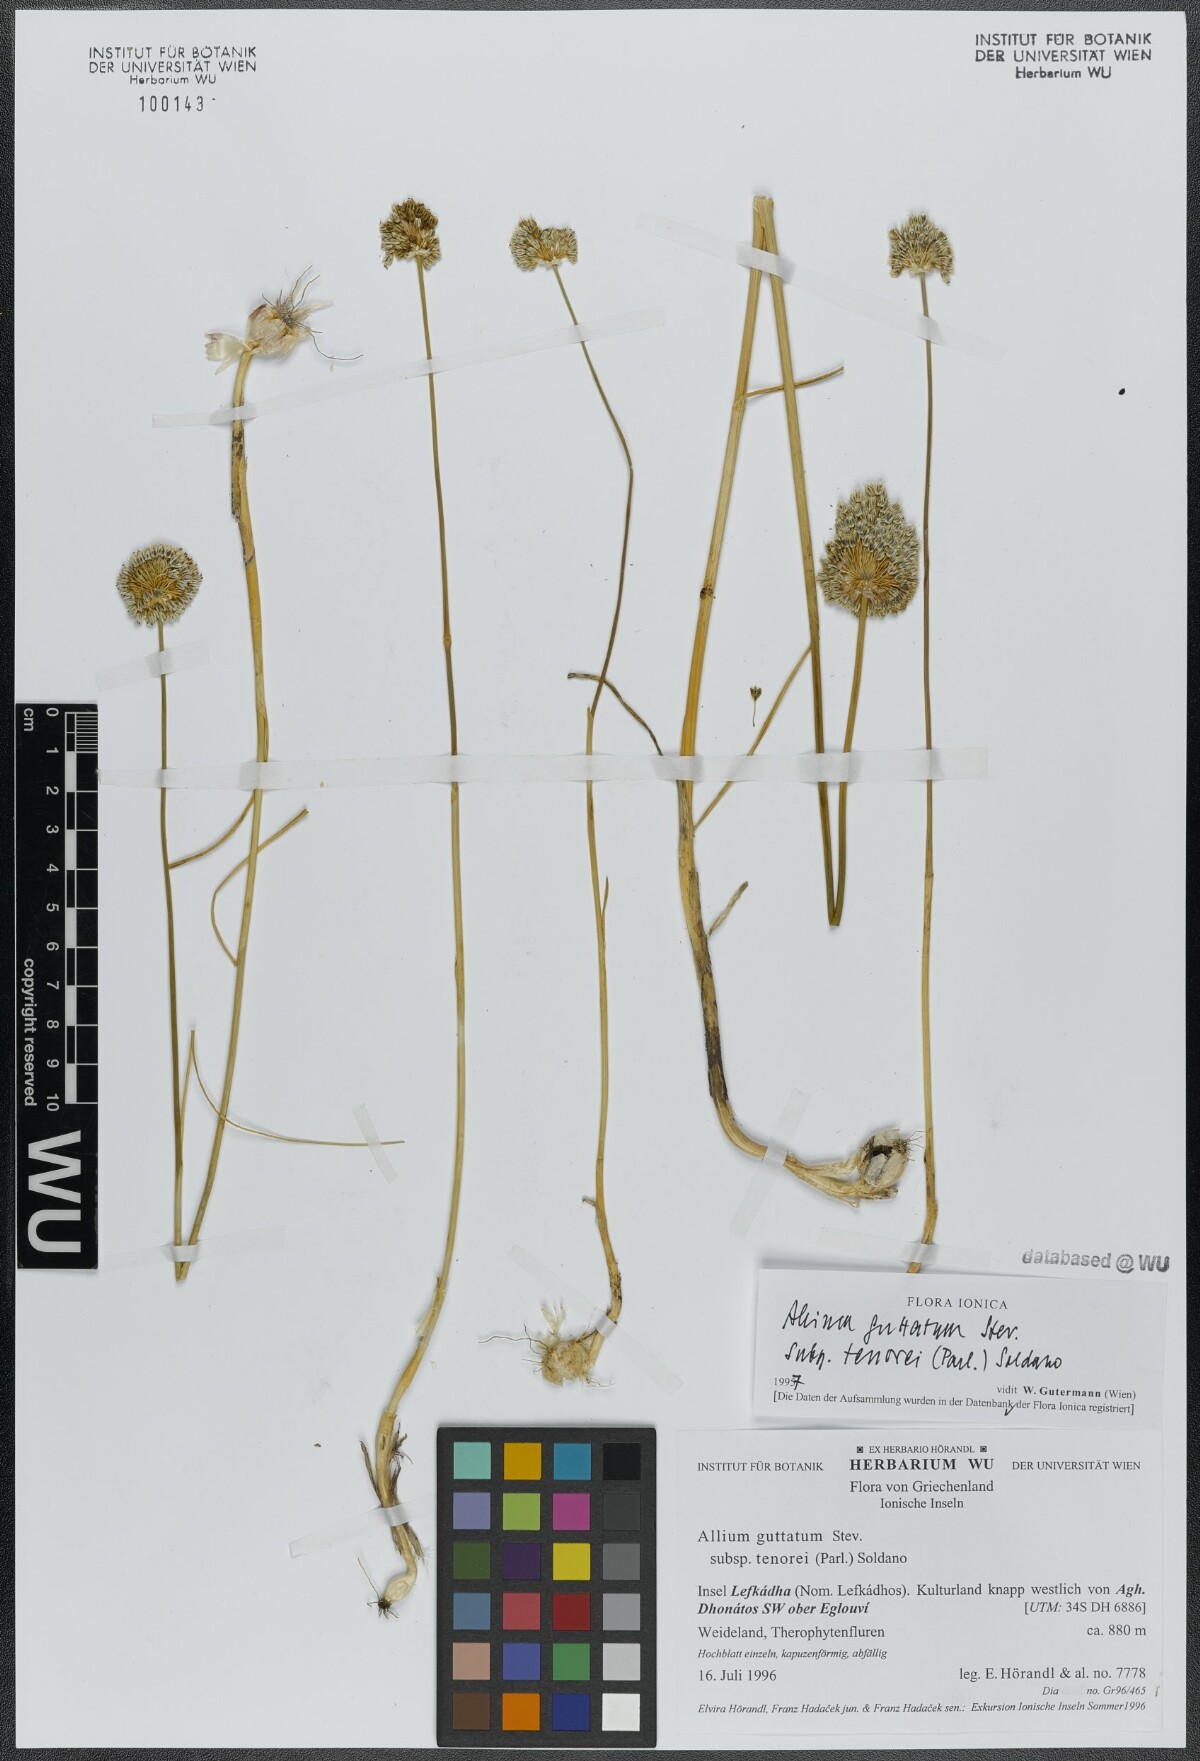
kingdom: Plantae
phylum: Tracheophyta
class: Liliopsida
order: Asparagales
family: Amaryllidaceae
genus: Allium
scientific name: Allium sardoum
